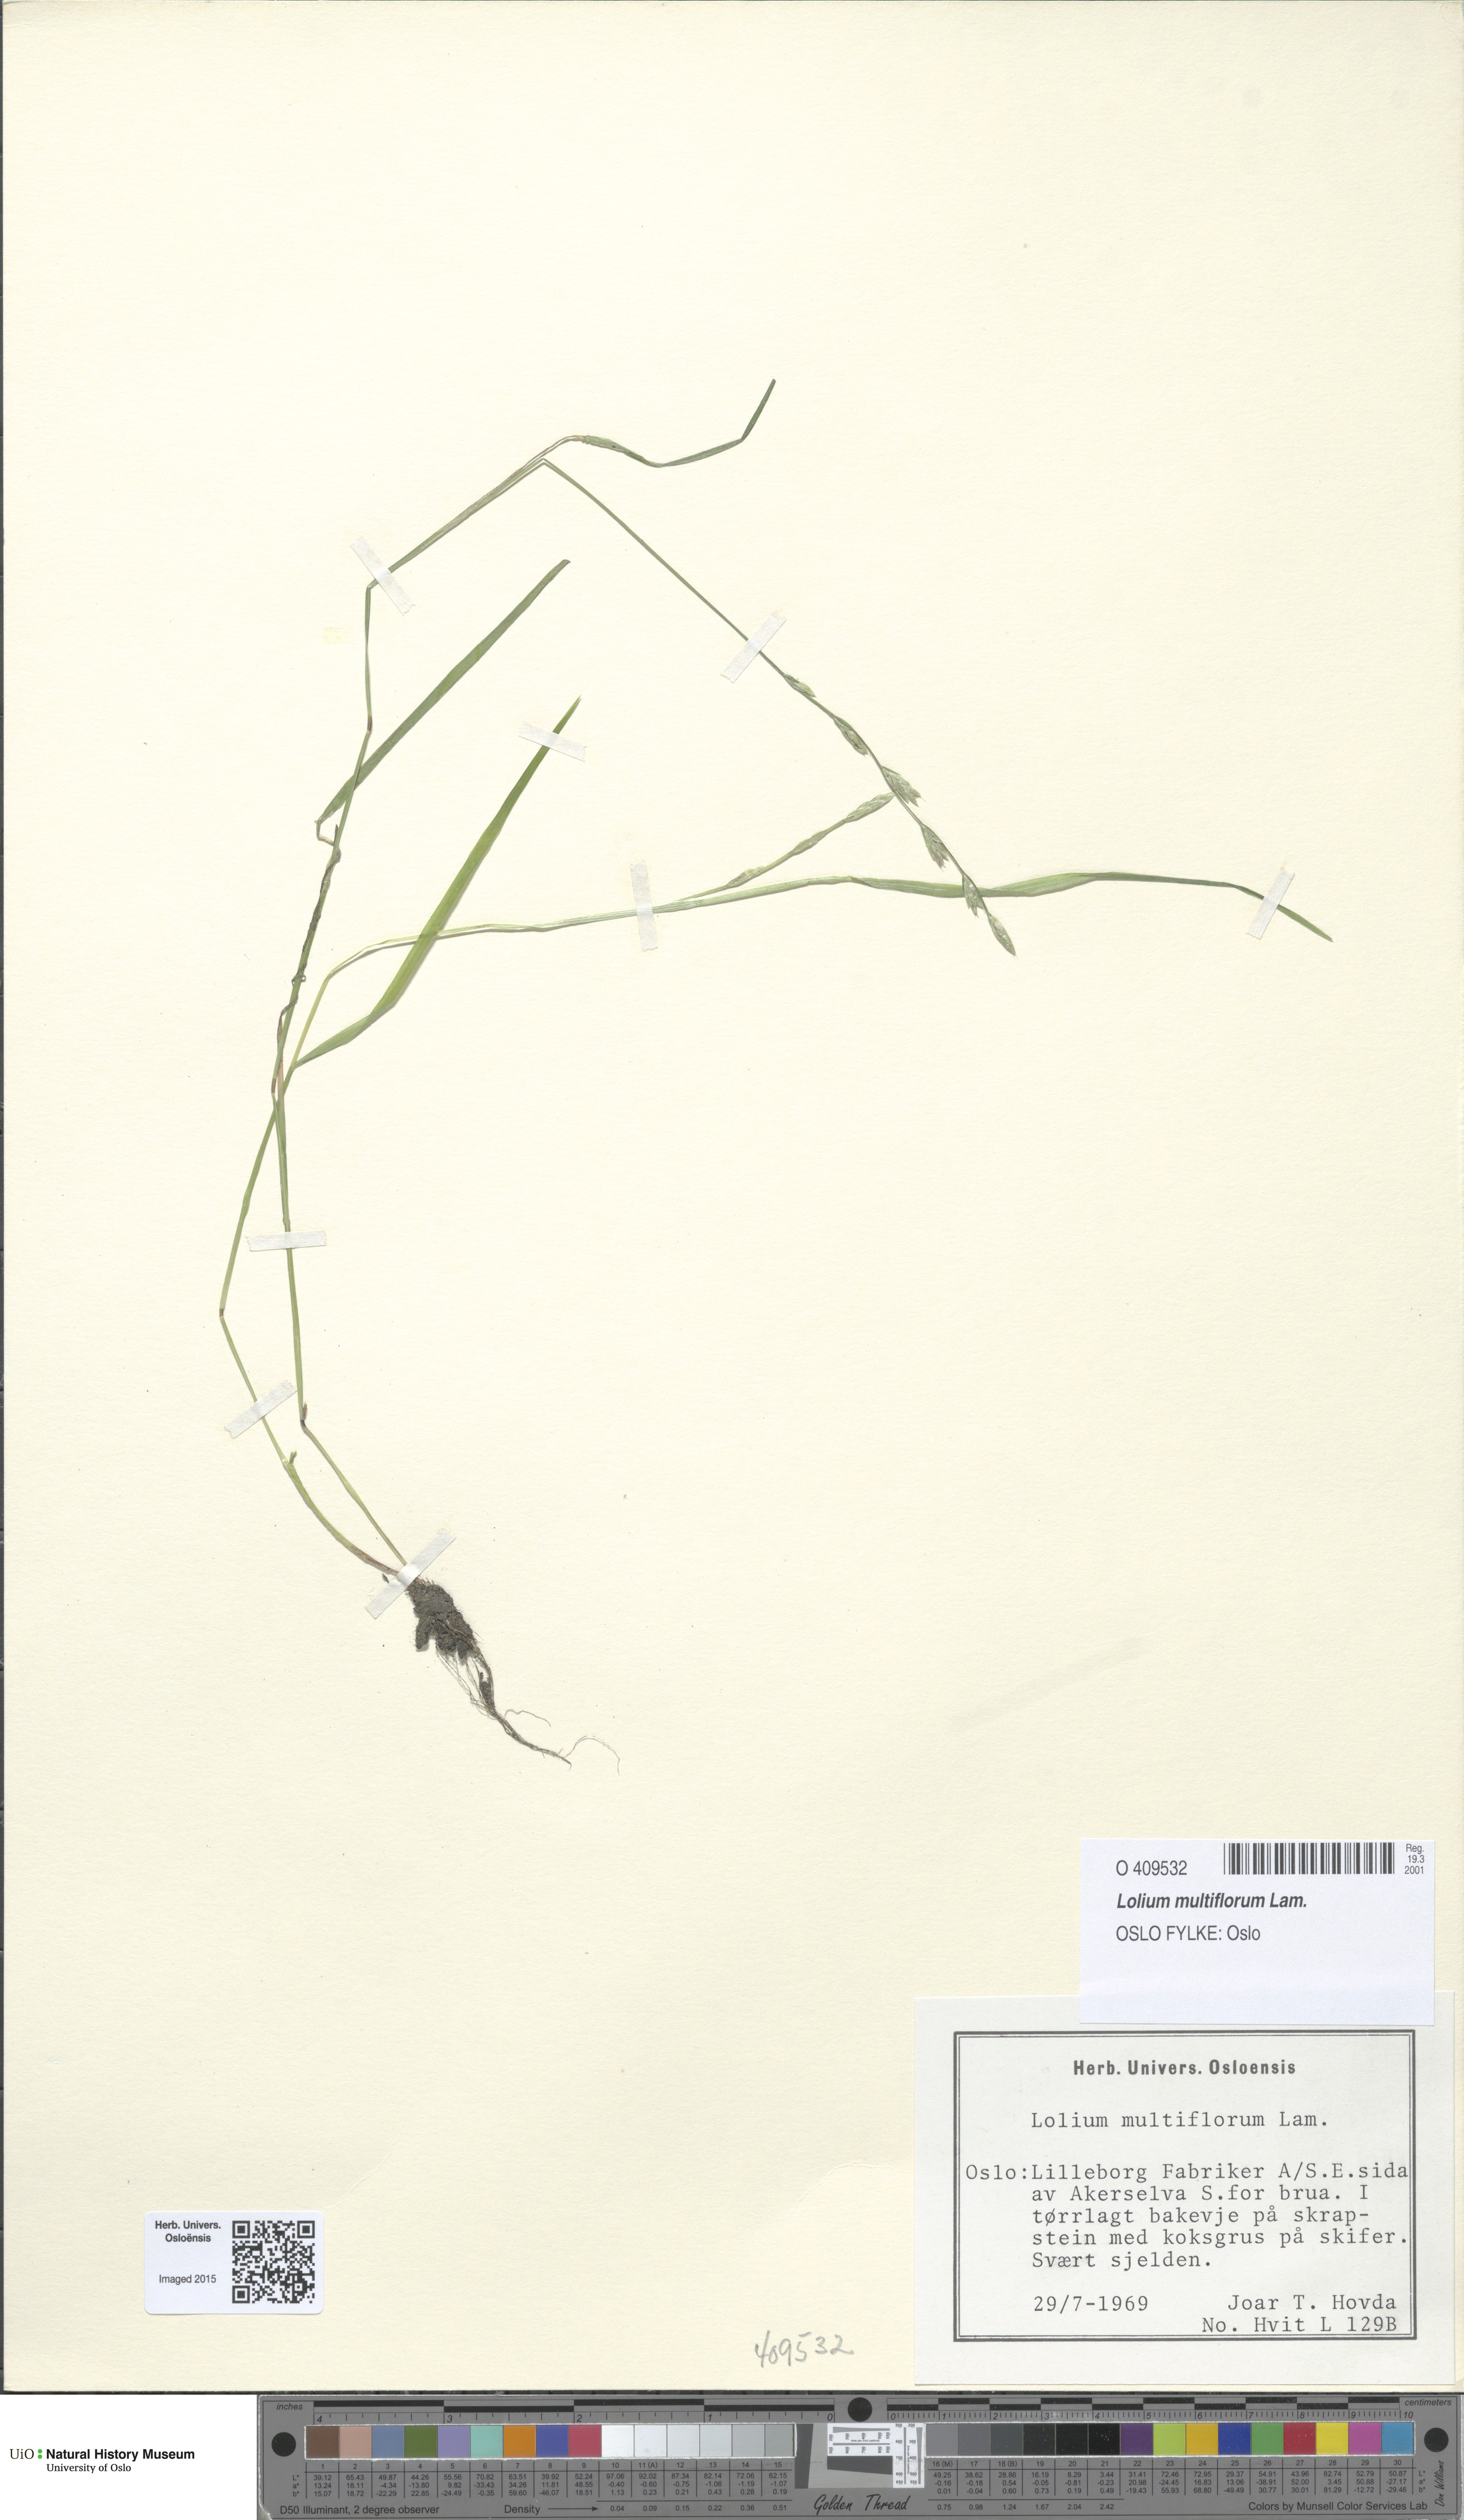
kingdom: Plantae
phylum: Tracheophyta
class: Liliopsida
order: Poales
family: Poaceae
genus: Lolium
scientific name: Lolium multiflorum
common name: Annual ryegrass
